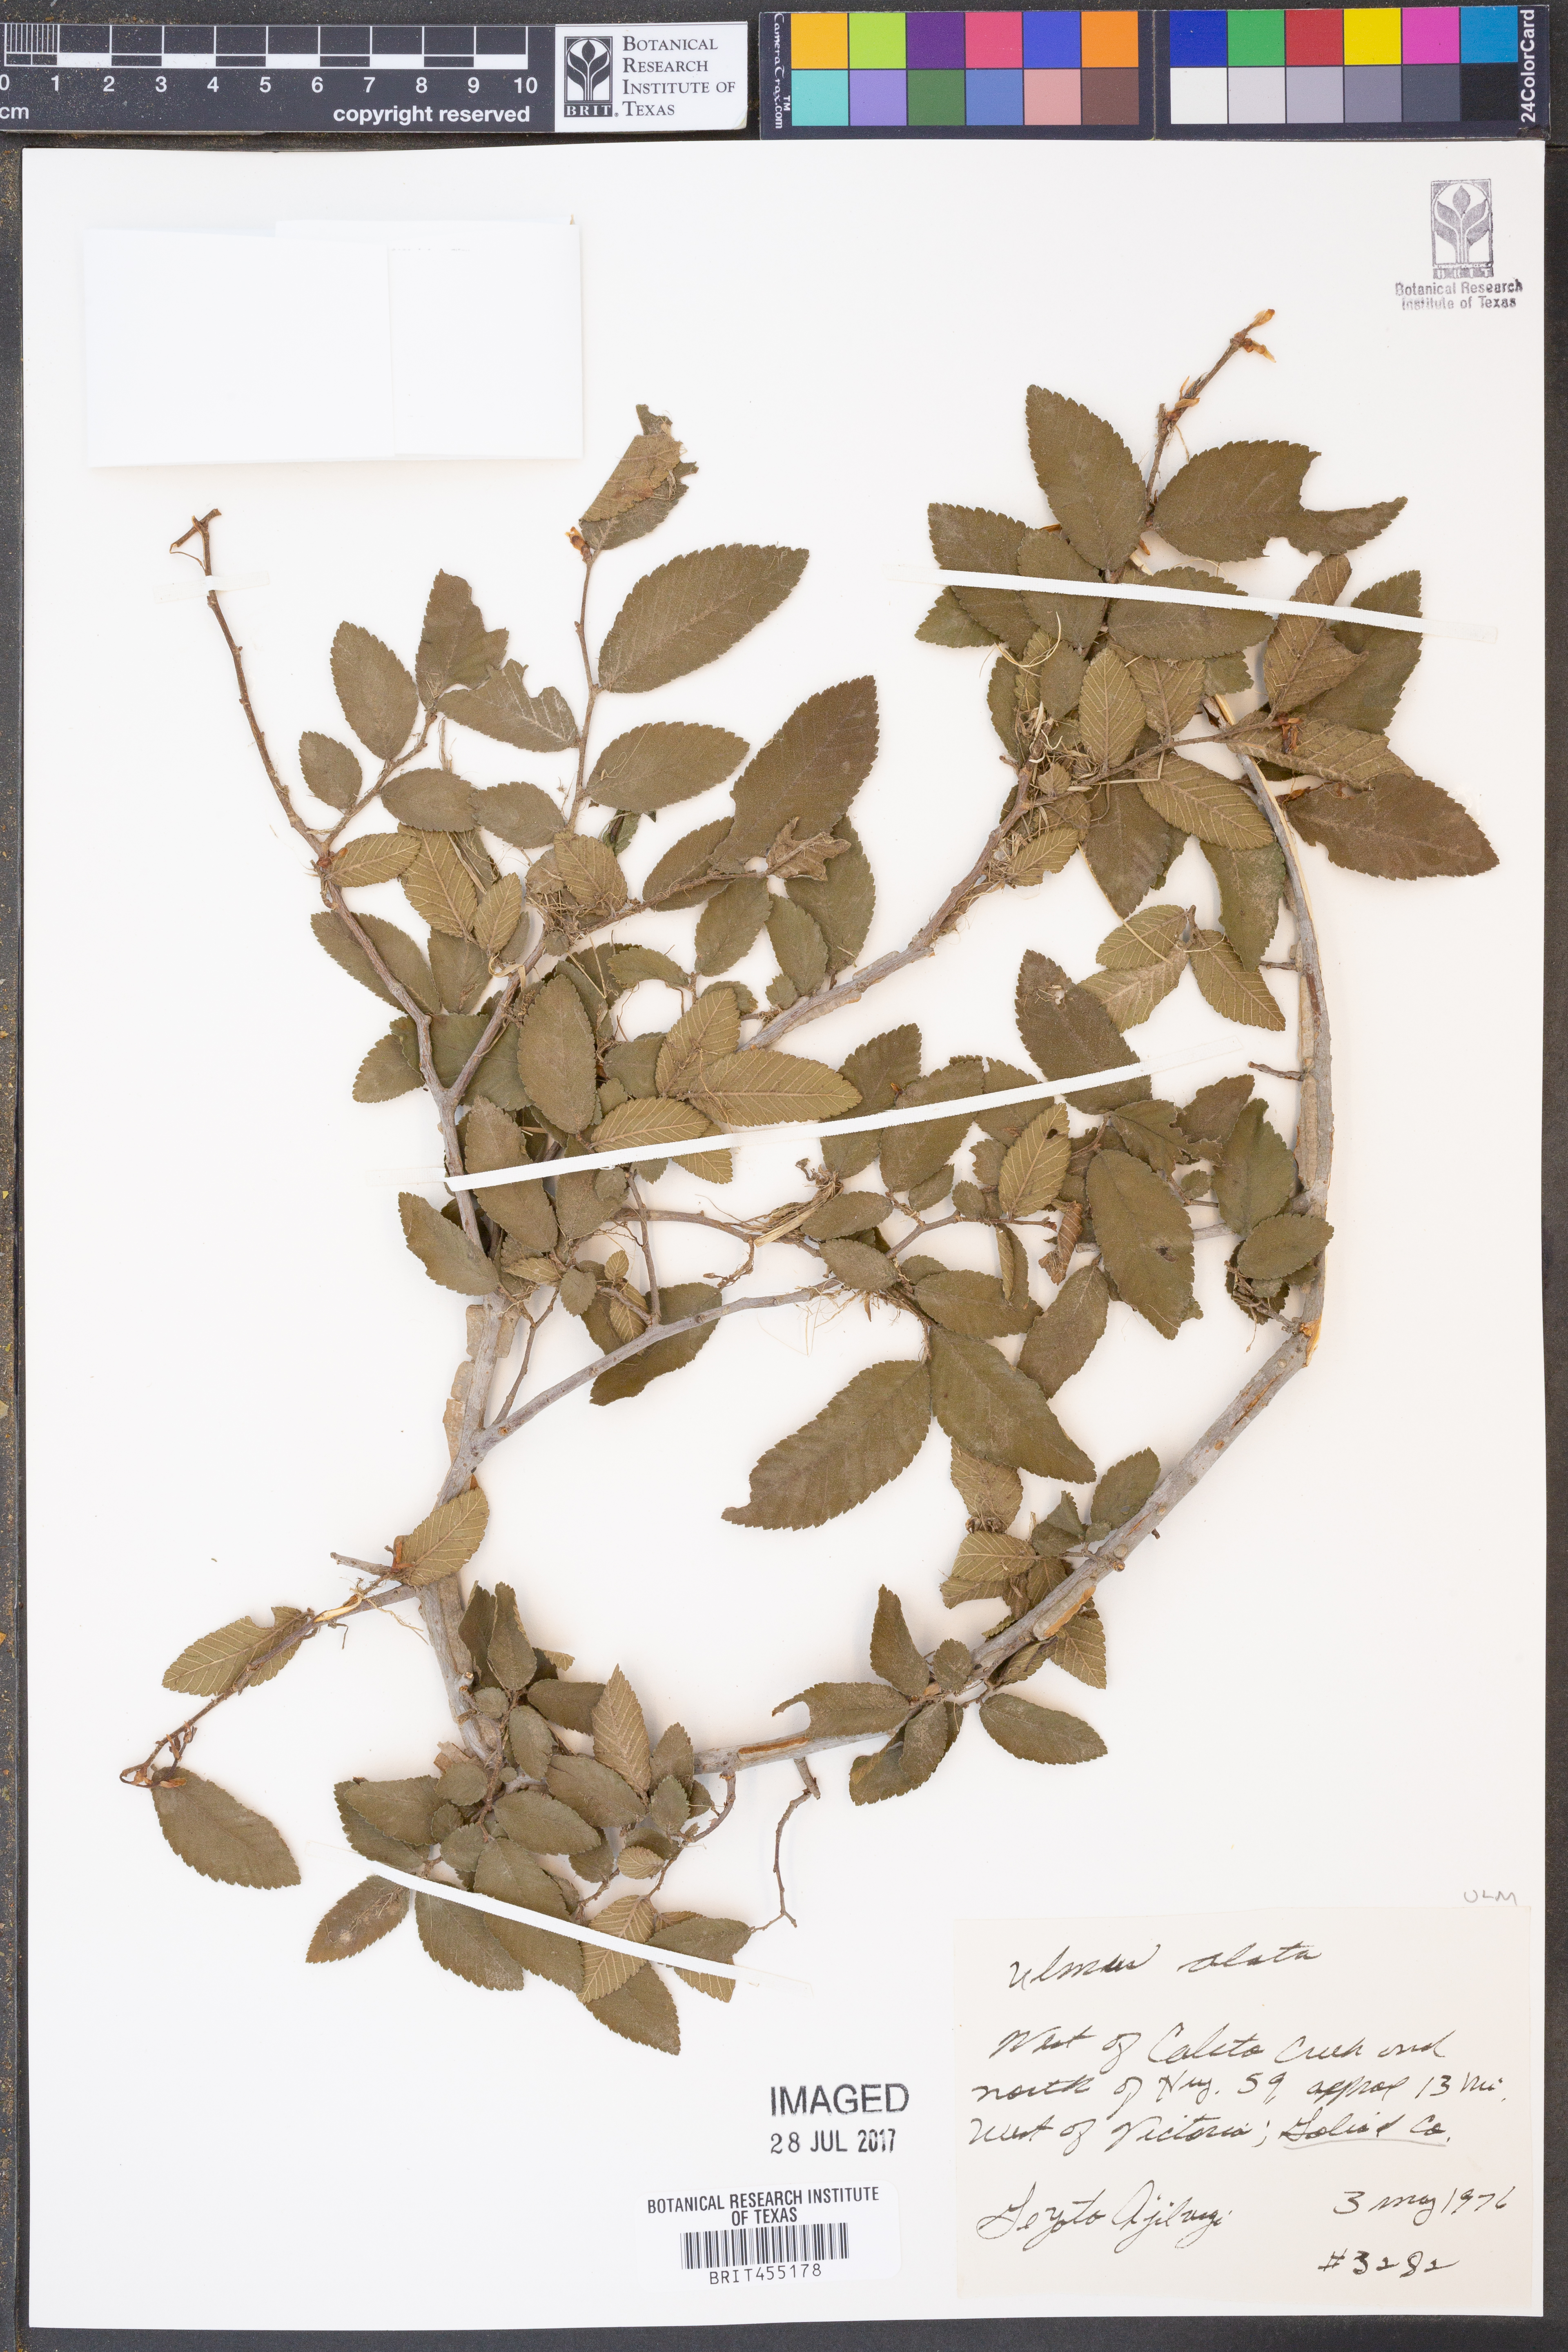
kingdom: Plantae
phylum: Tracheophyta
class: Magnoliopsida
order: Rosales
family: Ulmaceae
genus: Ulmus
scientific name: Ulmus alata
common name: Winged elm
